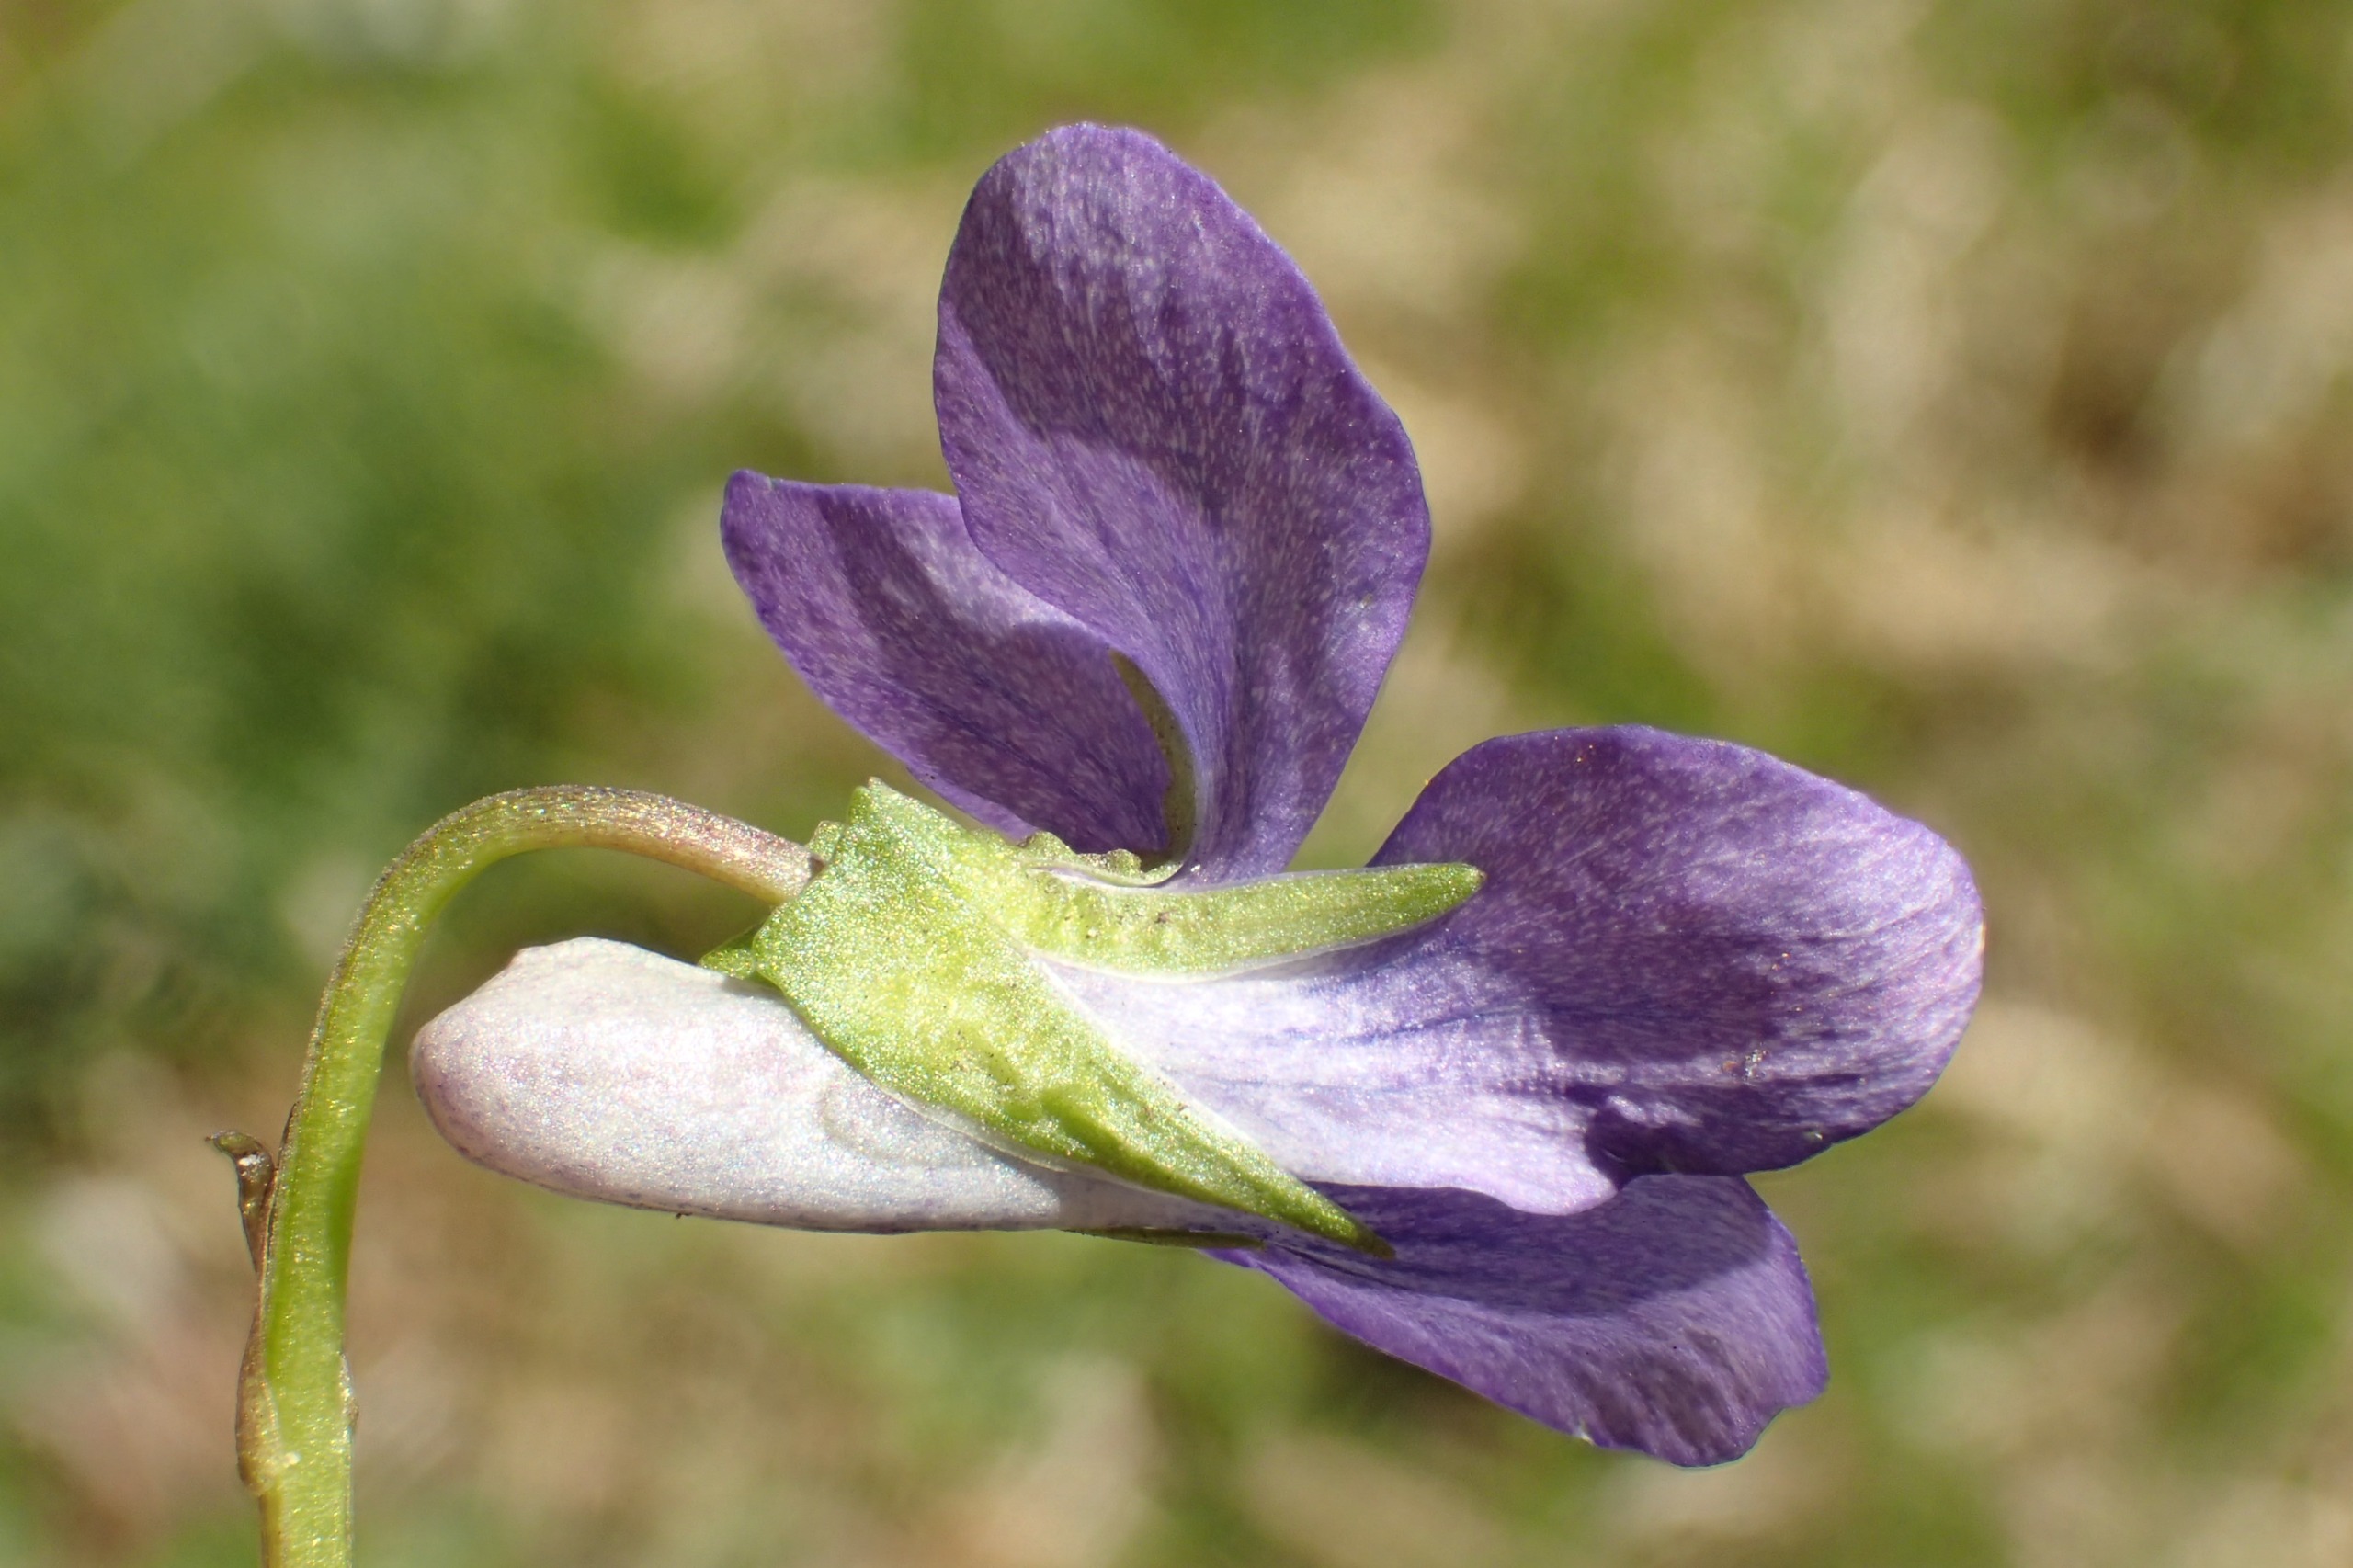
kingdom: Plantae
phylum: Tracheophyta
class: Magnoliopsida
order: Malpighiales
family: Violaceae
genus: Viola
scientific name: Viola riviniana
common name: Krat-viol
